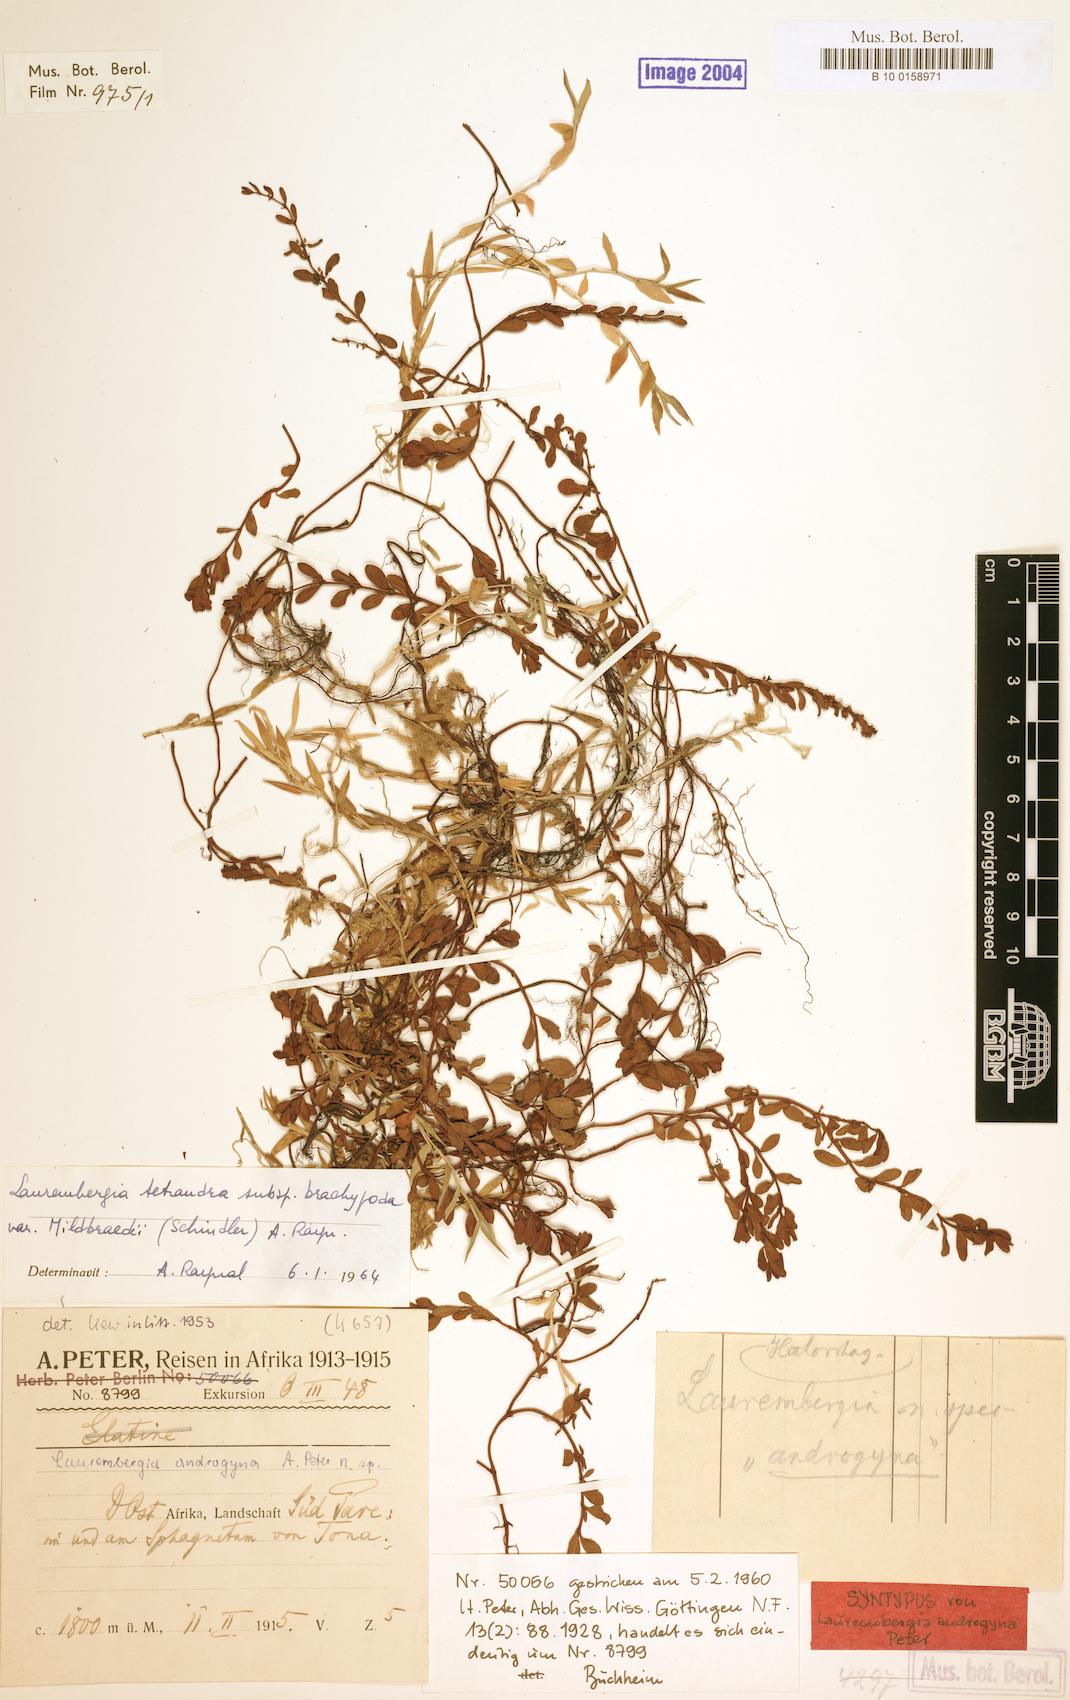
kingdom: Plantae
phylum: Tracheophyta
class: Magnoliopsida
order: Saxifragales
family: Haloragaceae
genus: Laurembergia
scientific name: Laurembergia repens
